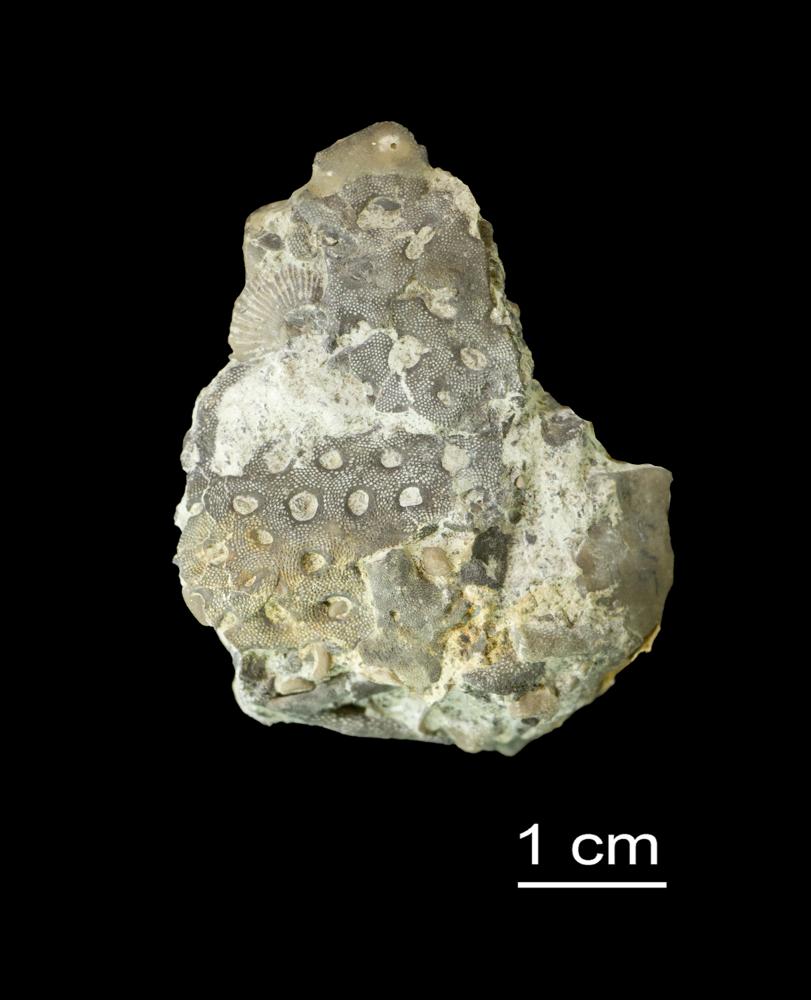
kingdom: Animalia
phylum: Bryozoa
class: Stenolaemata
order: Cryptostomida
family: Stictoporellidae
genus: Stictoporella
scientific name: Stictoporella
